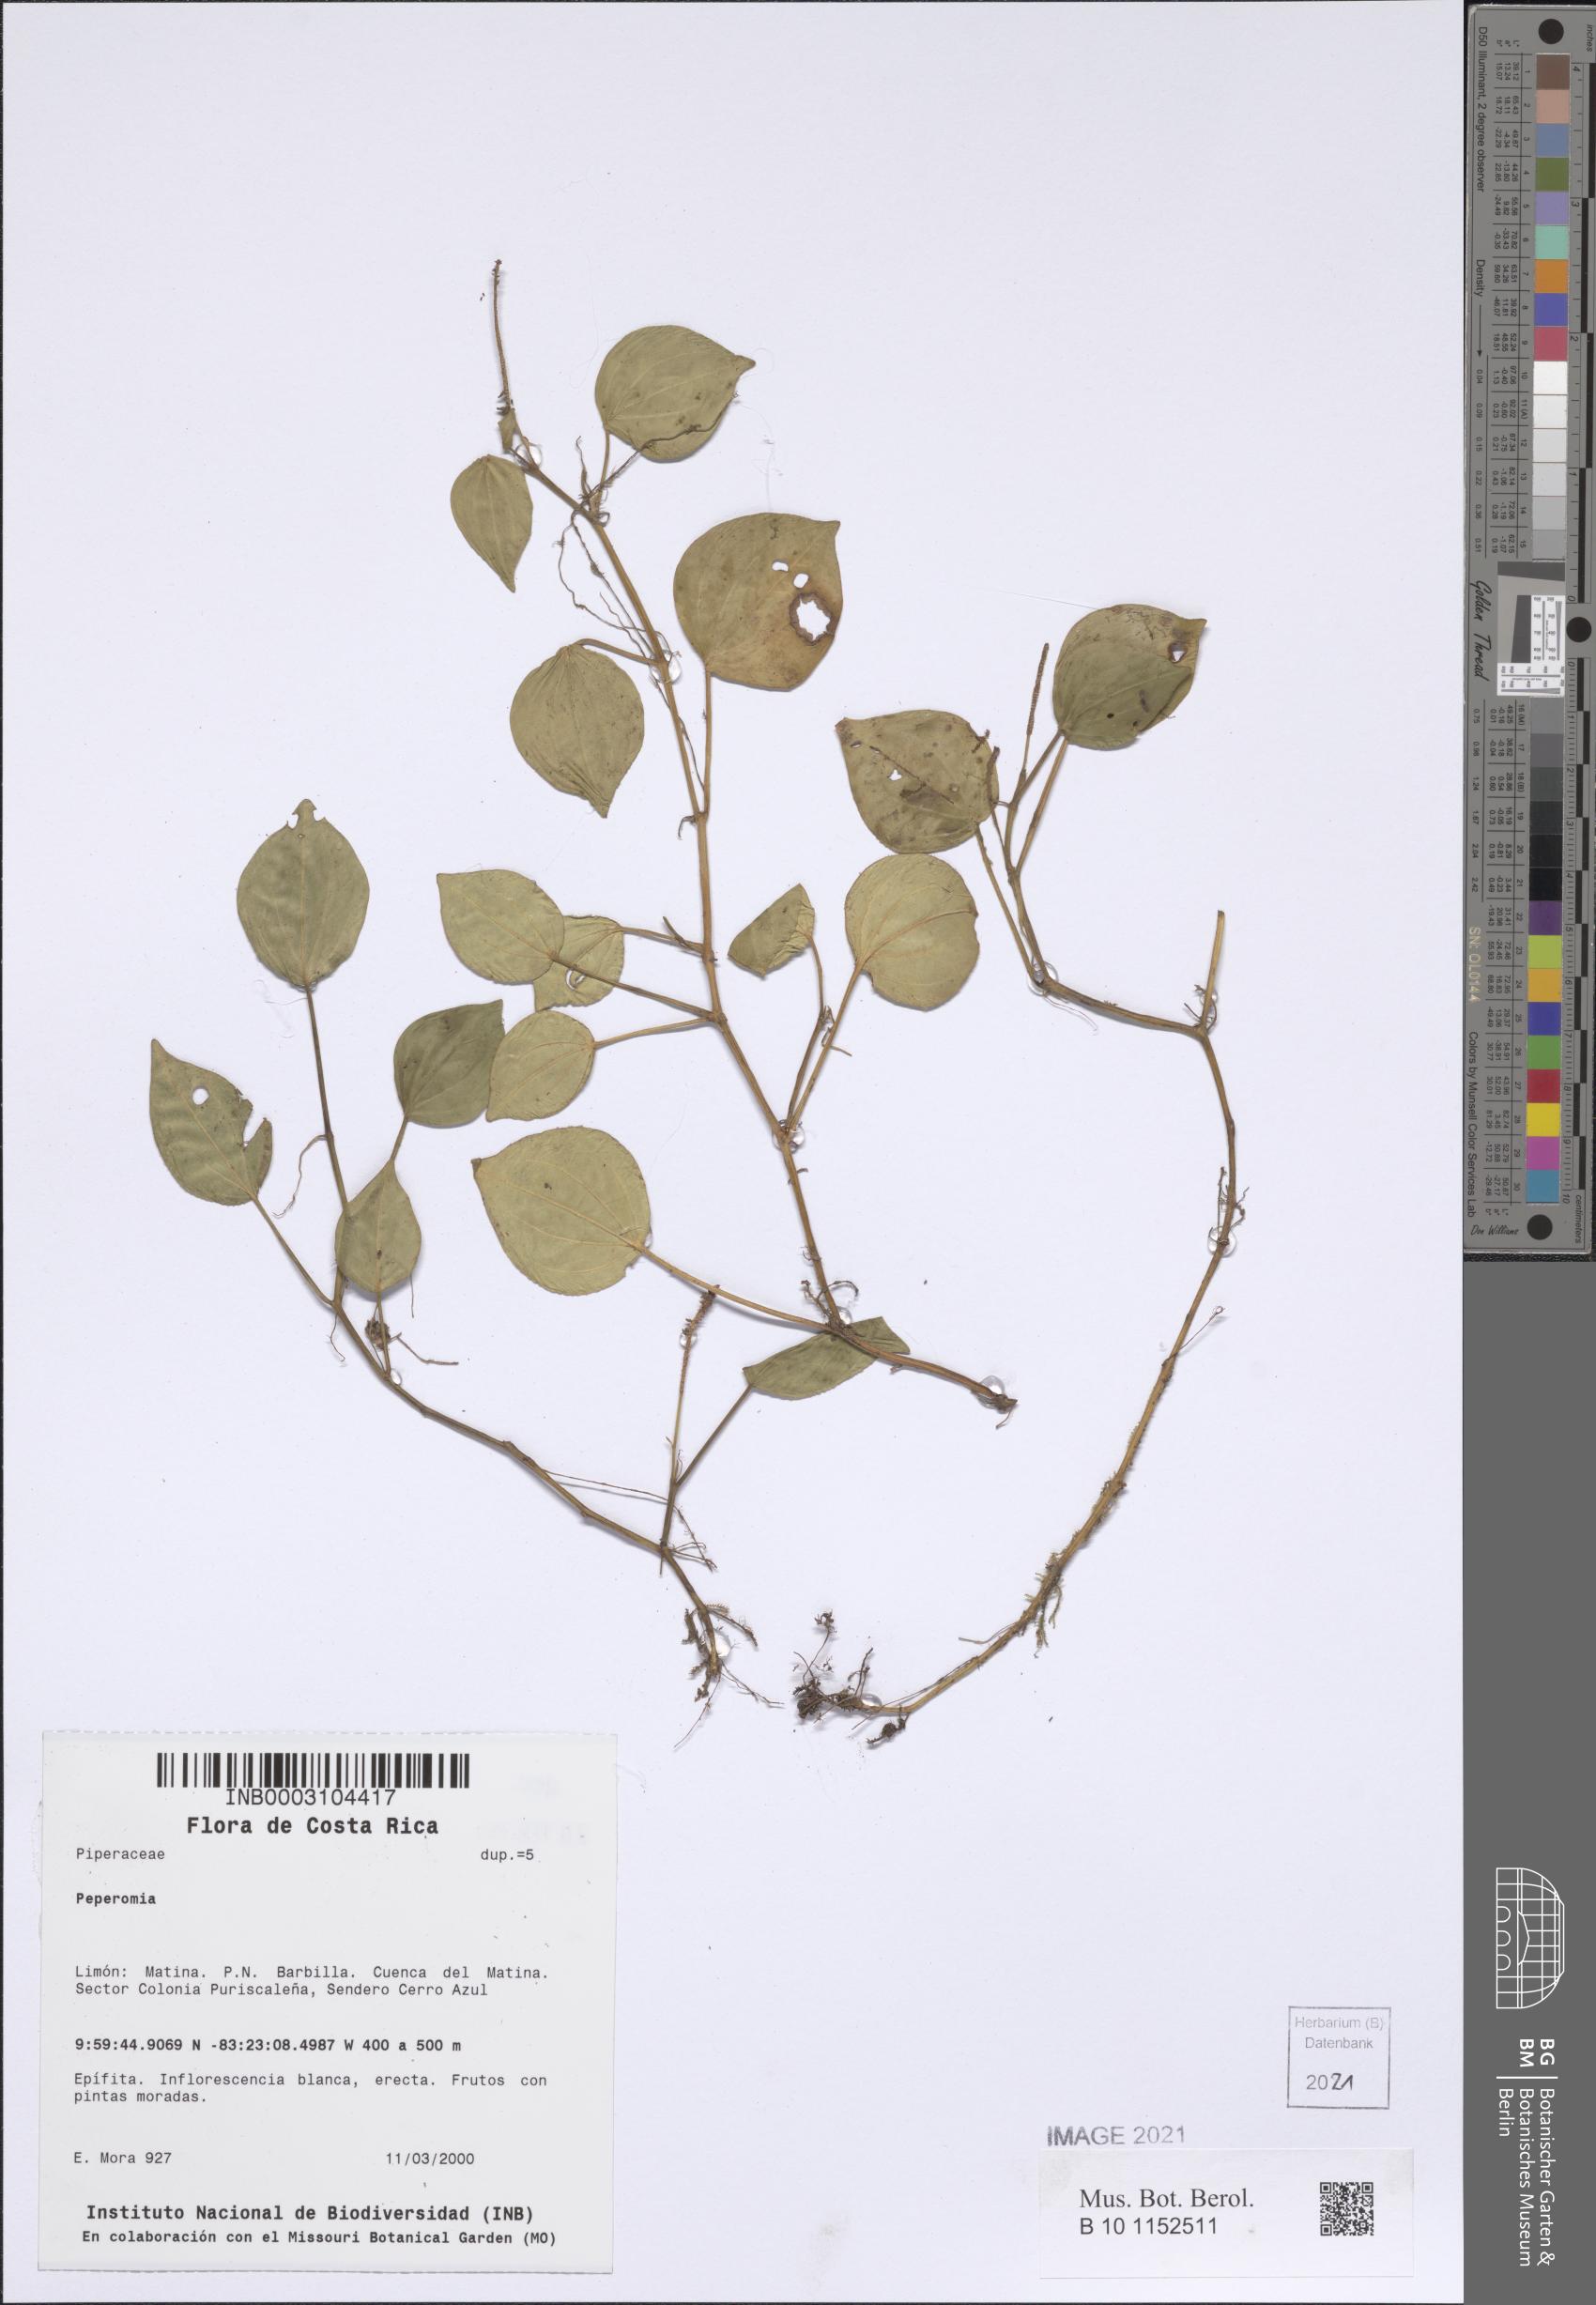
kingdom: Plantae
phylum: Tracheophyta
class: Magnoliopsida
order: Piperales
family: Piperaceae
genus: Peperomia
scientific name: Peperomia
